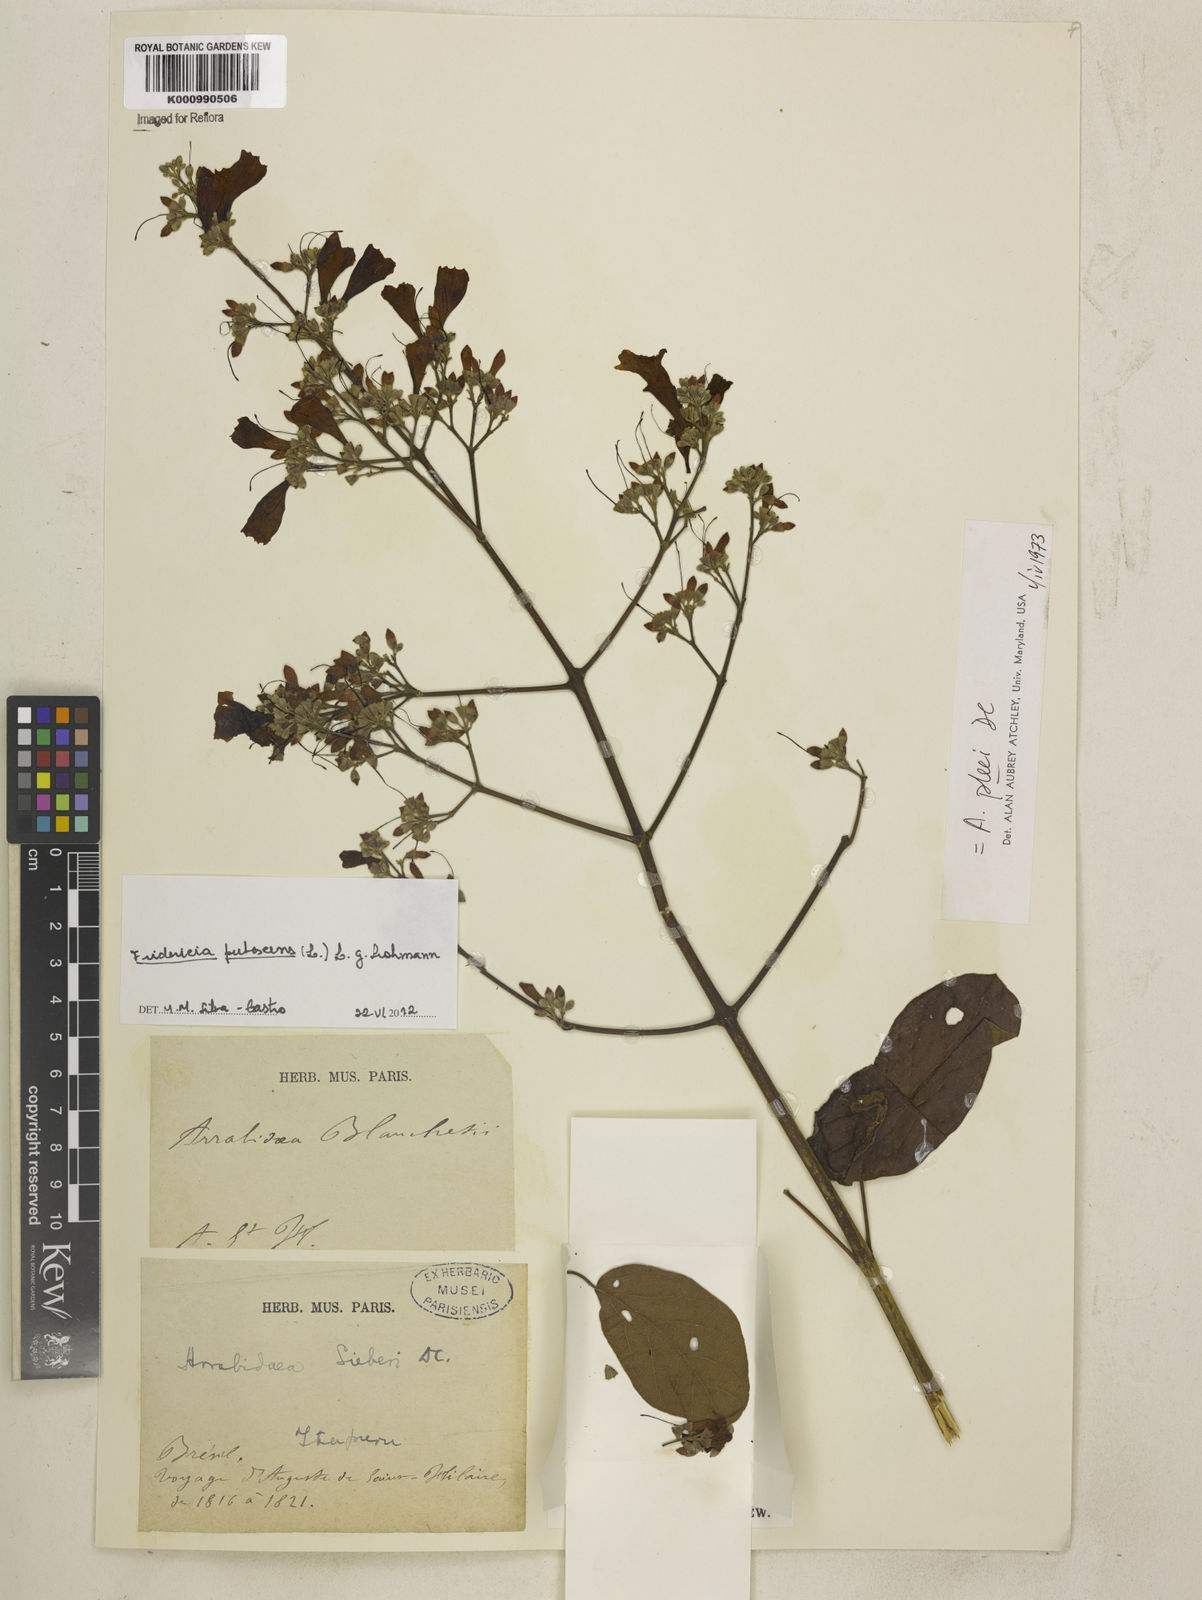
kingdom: Plantae
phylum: Tracheophyta
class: Magnoliopsida
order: Lamiales
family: Bignoniaceae
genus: Fridericia
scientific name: Fridericia pubescens
